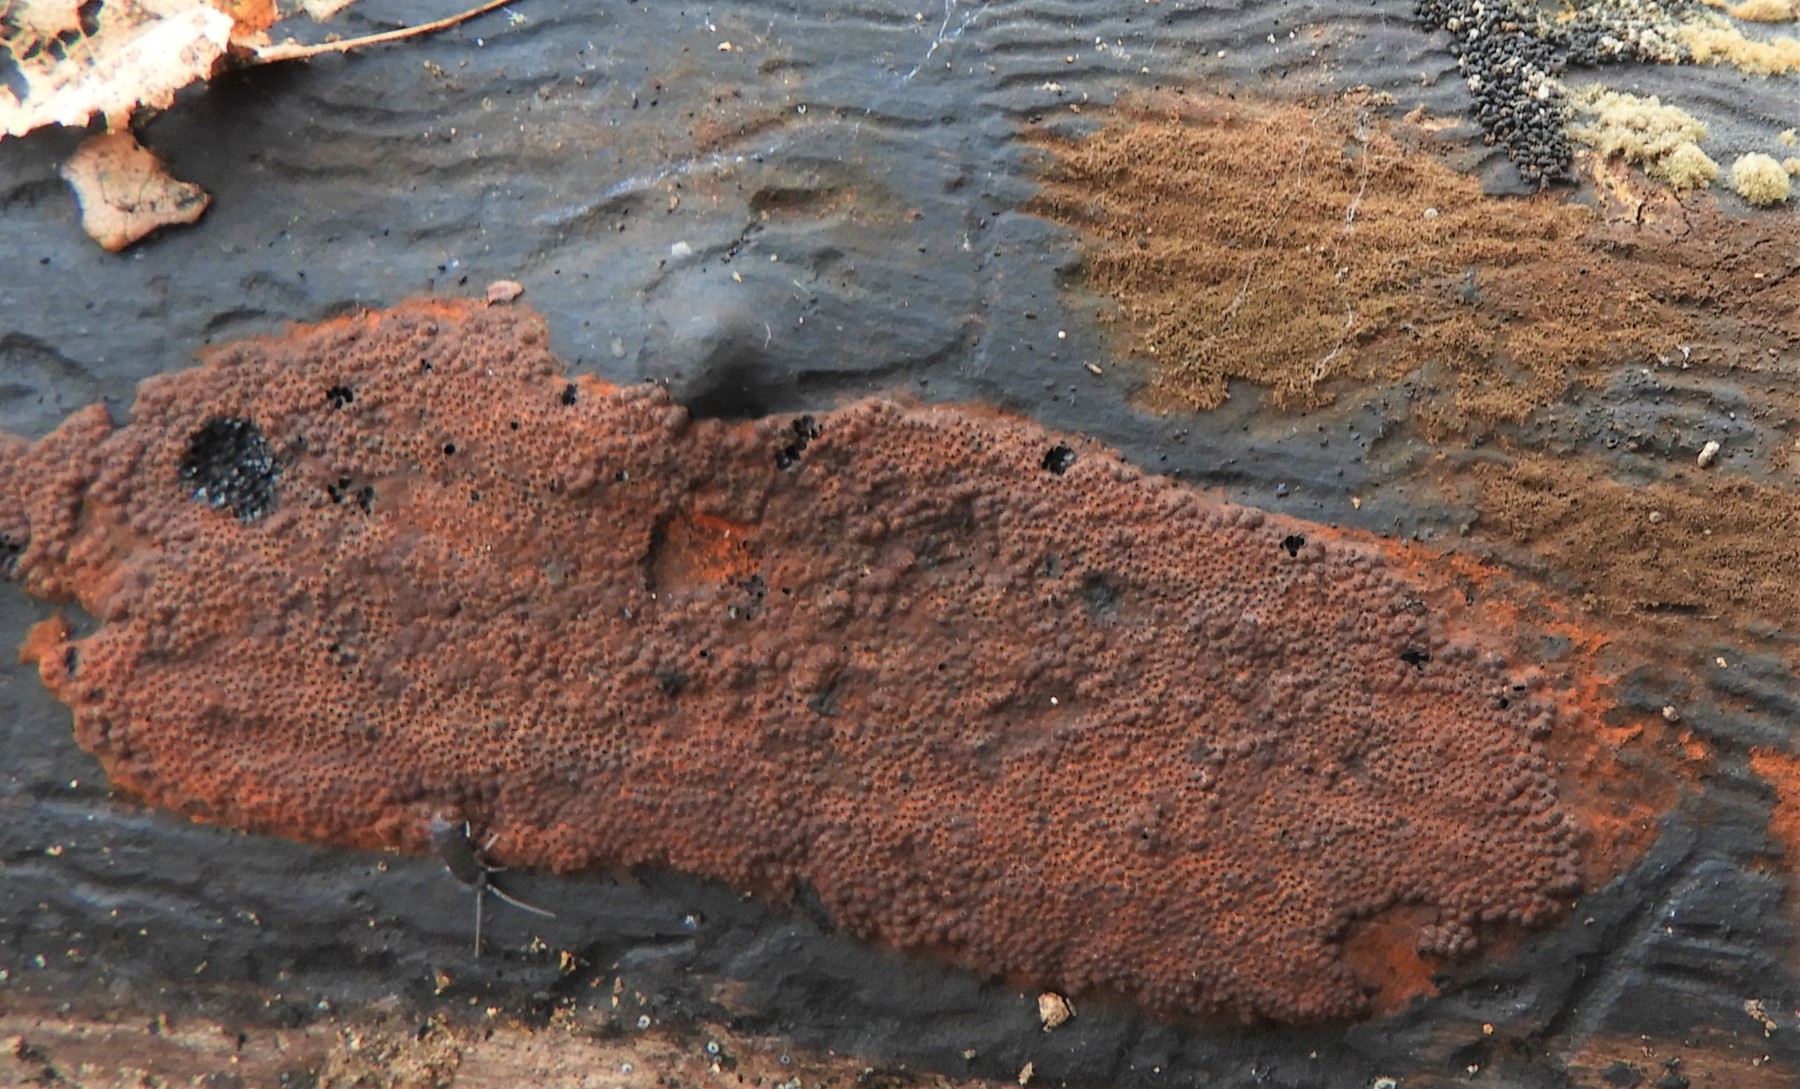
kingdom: Fungi
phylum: Ascomycota
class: Sordariomycetes
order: Xylariales
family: Hypoxylaceae
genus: Hypoxylon
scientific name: Hypoxylon rubiginosum
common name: rustfarvet kulbær
